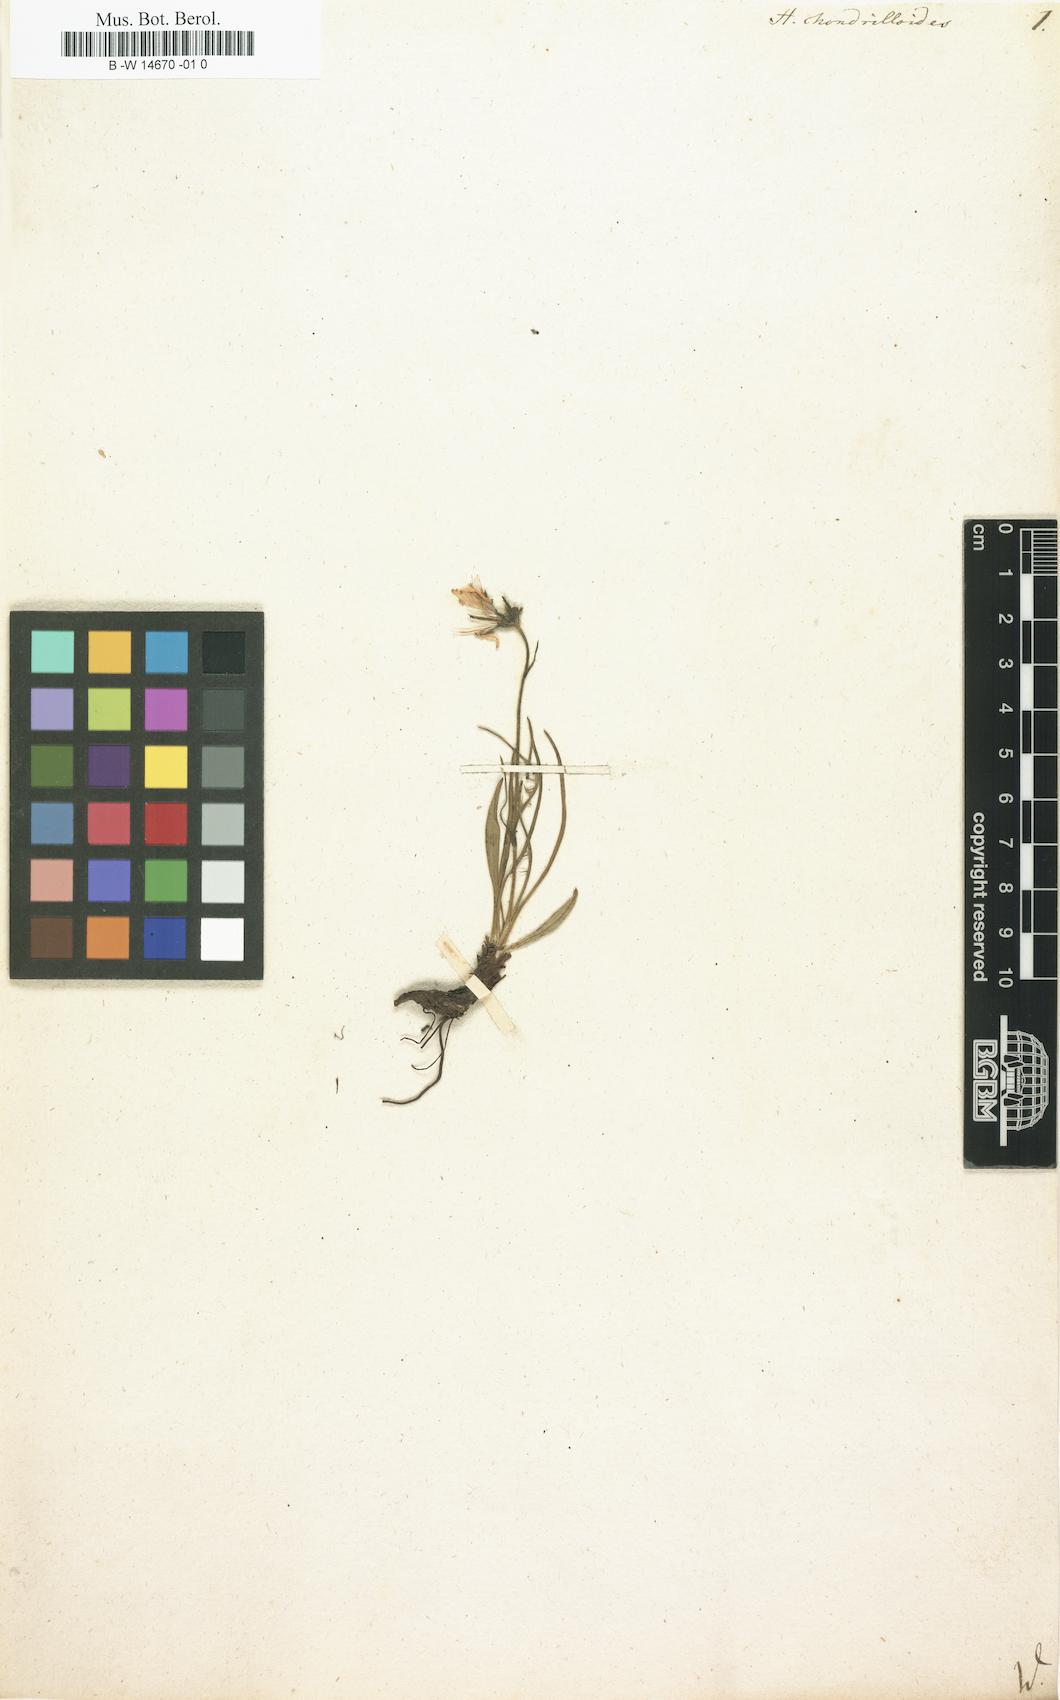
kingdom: Plantae
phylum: Tracheophyta
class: Magnoliopsida
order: Asterales
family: Asteraceae
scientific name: Asteraceae
